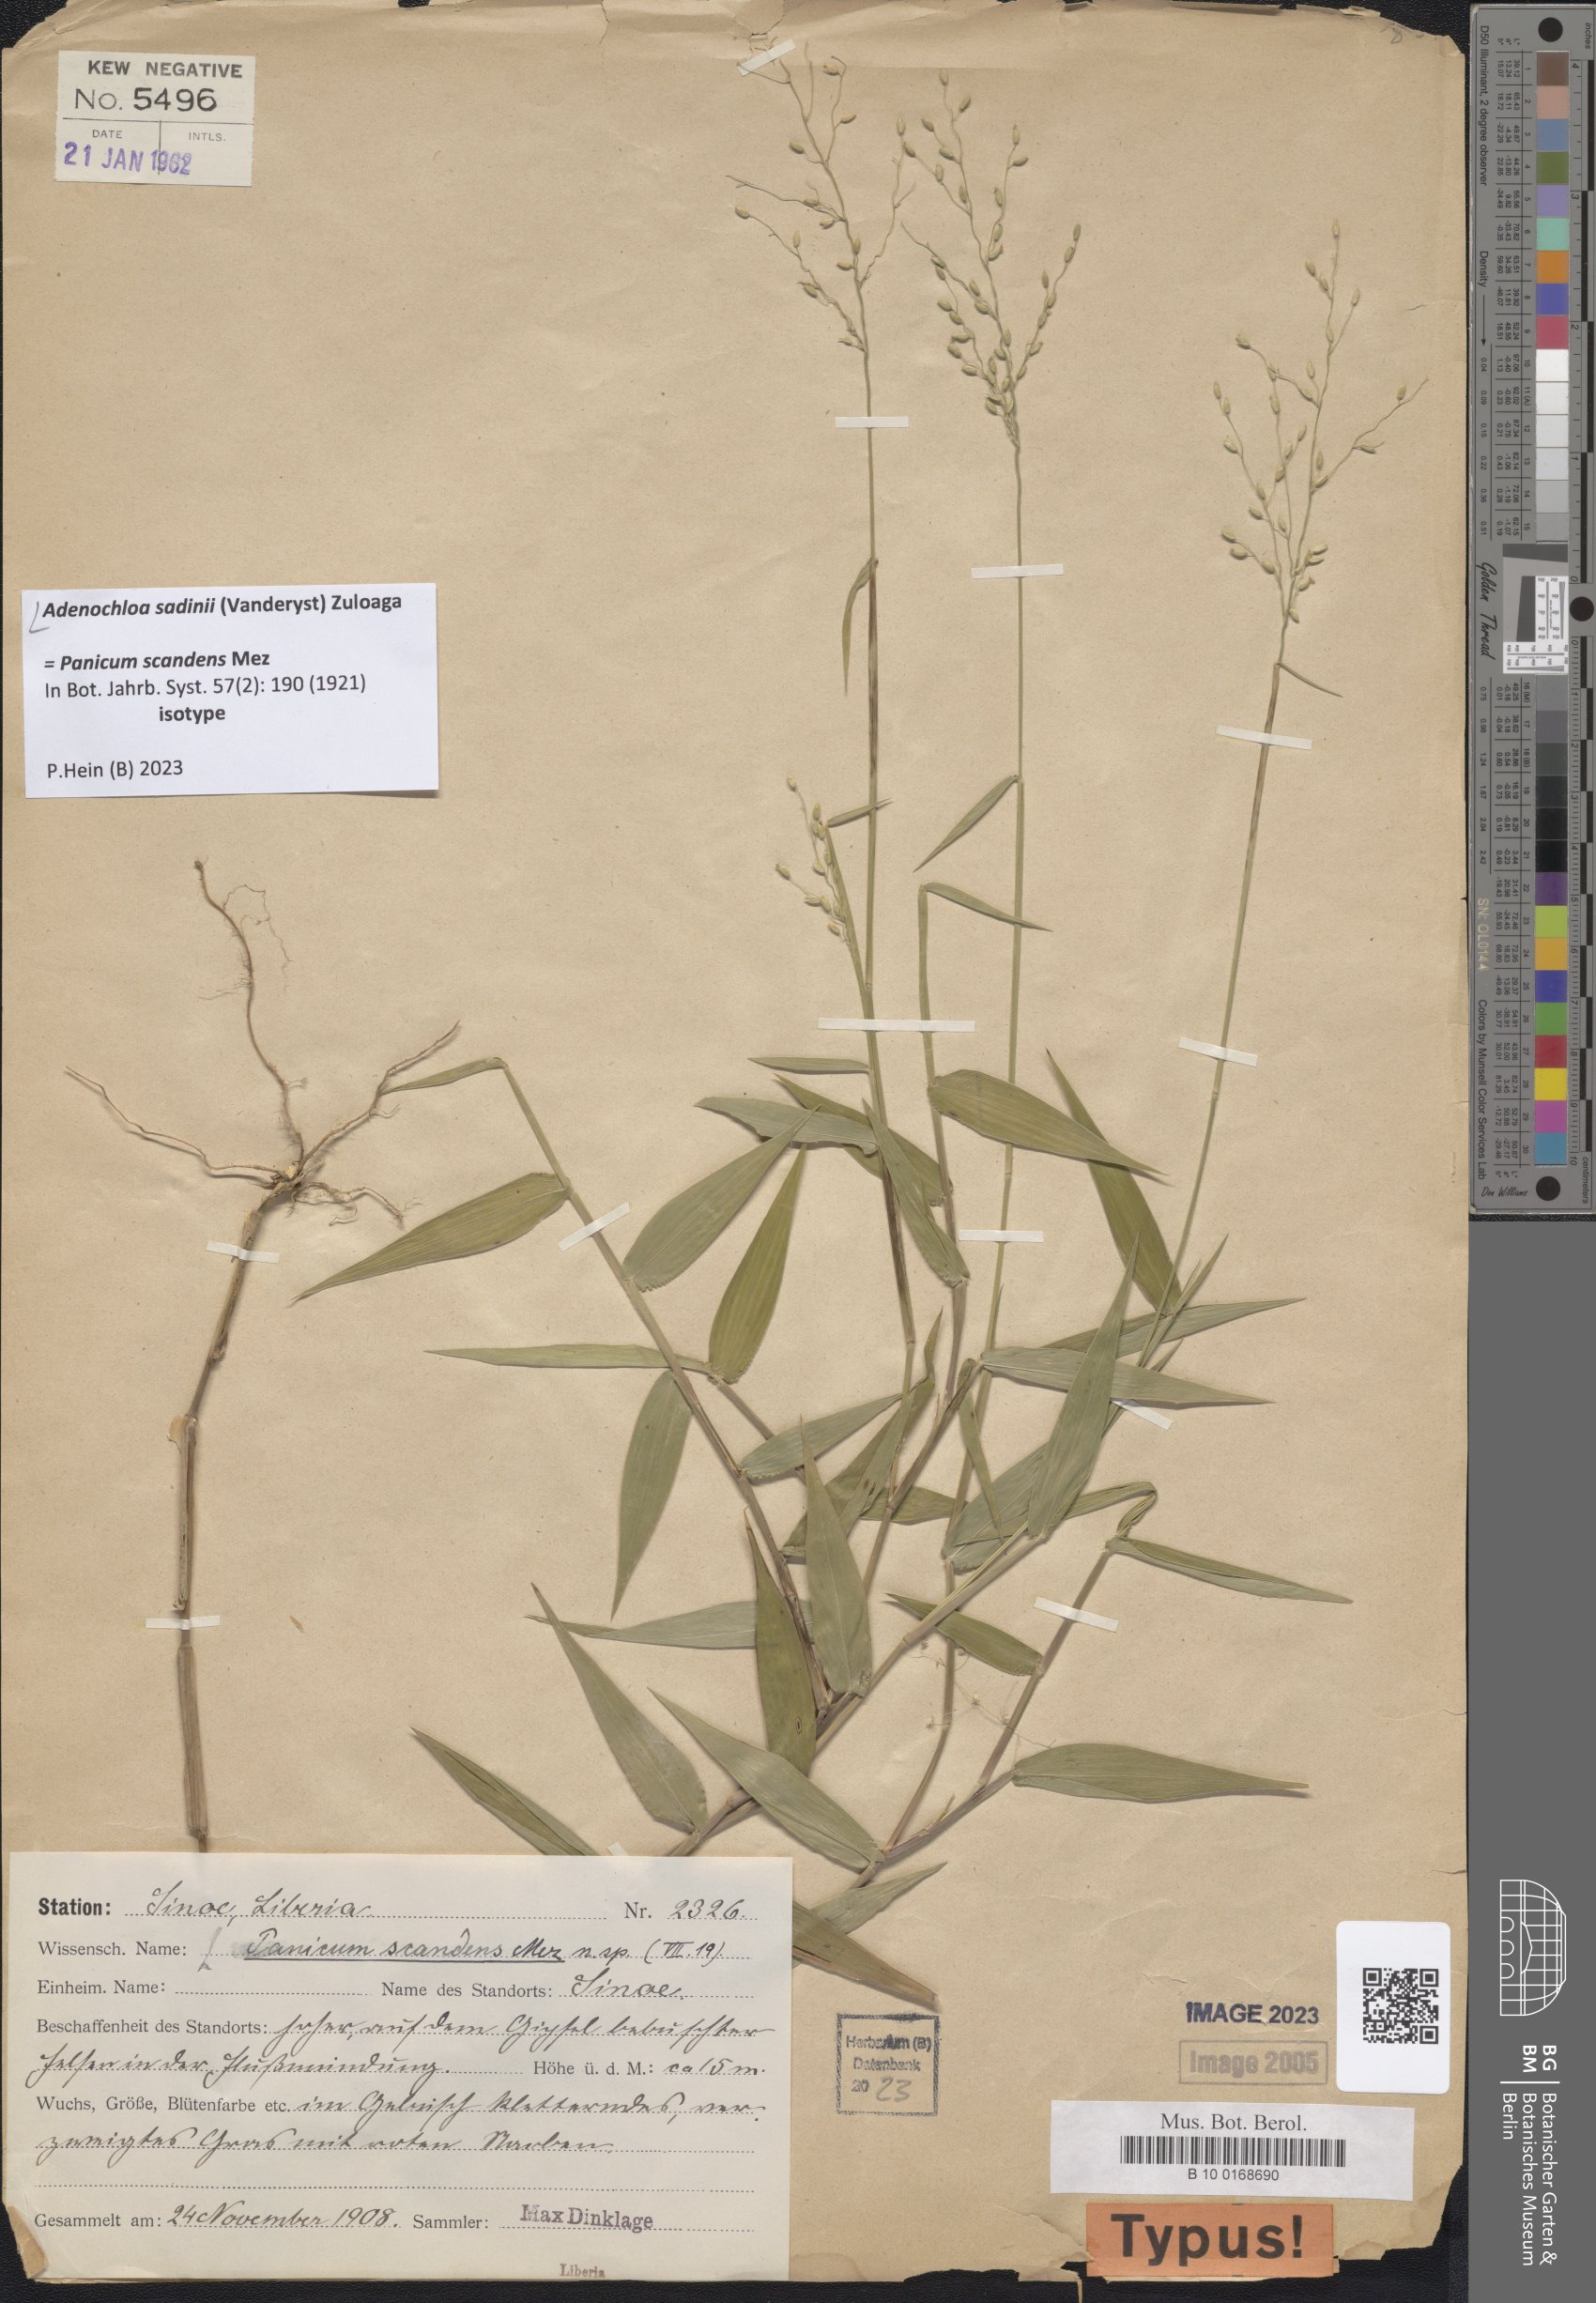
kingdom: Plantae
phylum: Tracheophyta
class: Liliopsida
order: Poales
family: Poaceae
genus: Adenochloa
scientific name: Adenochloa sadinii
